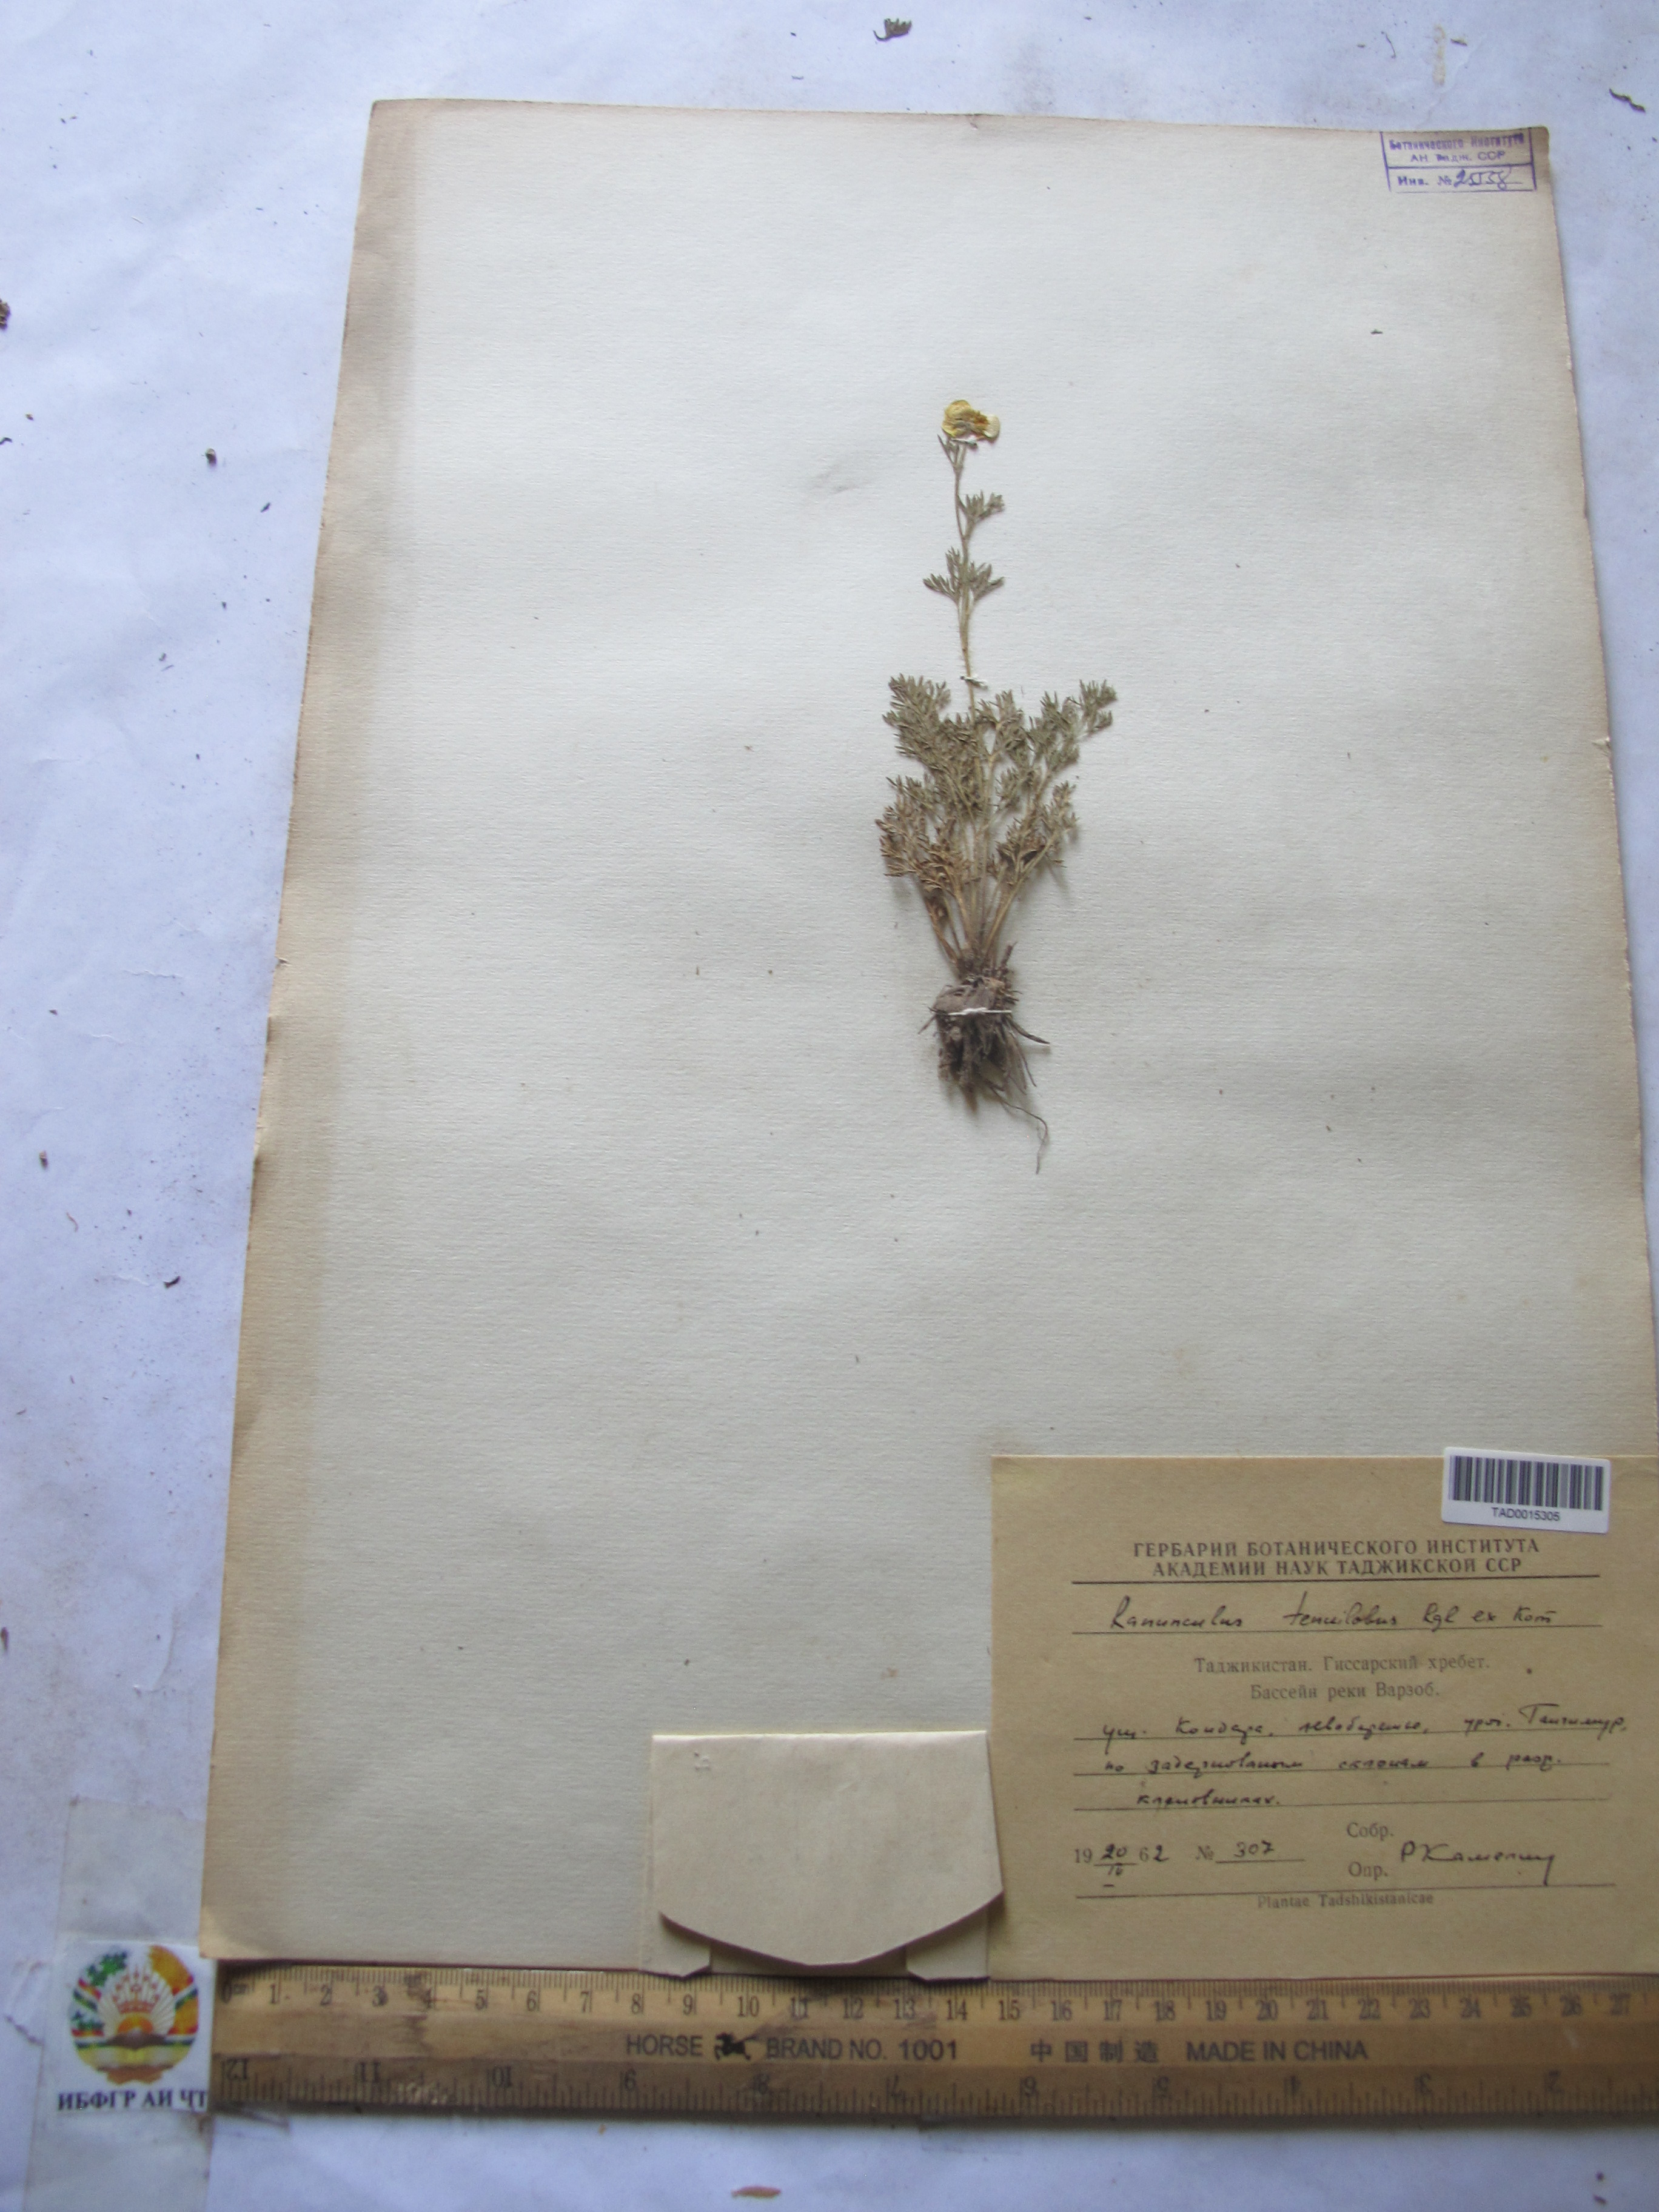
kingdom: Plantae
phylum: Tracheophyta
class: Magnoliopsida
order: Ranunculales
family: Ranunculaceae
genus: Ranunculus
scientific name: Ranunculus tenuilobus
